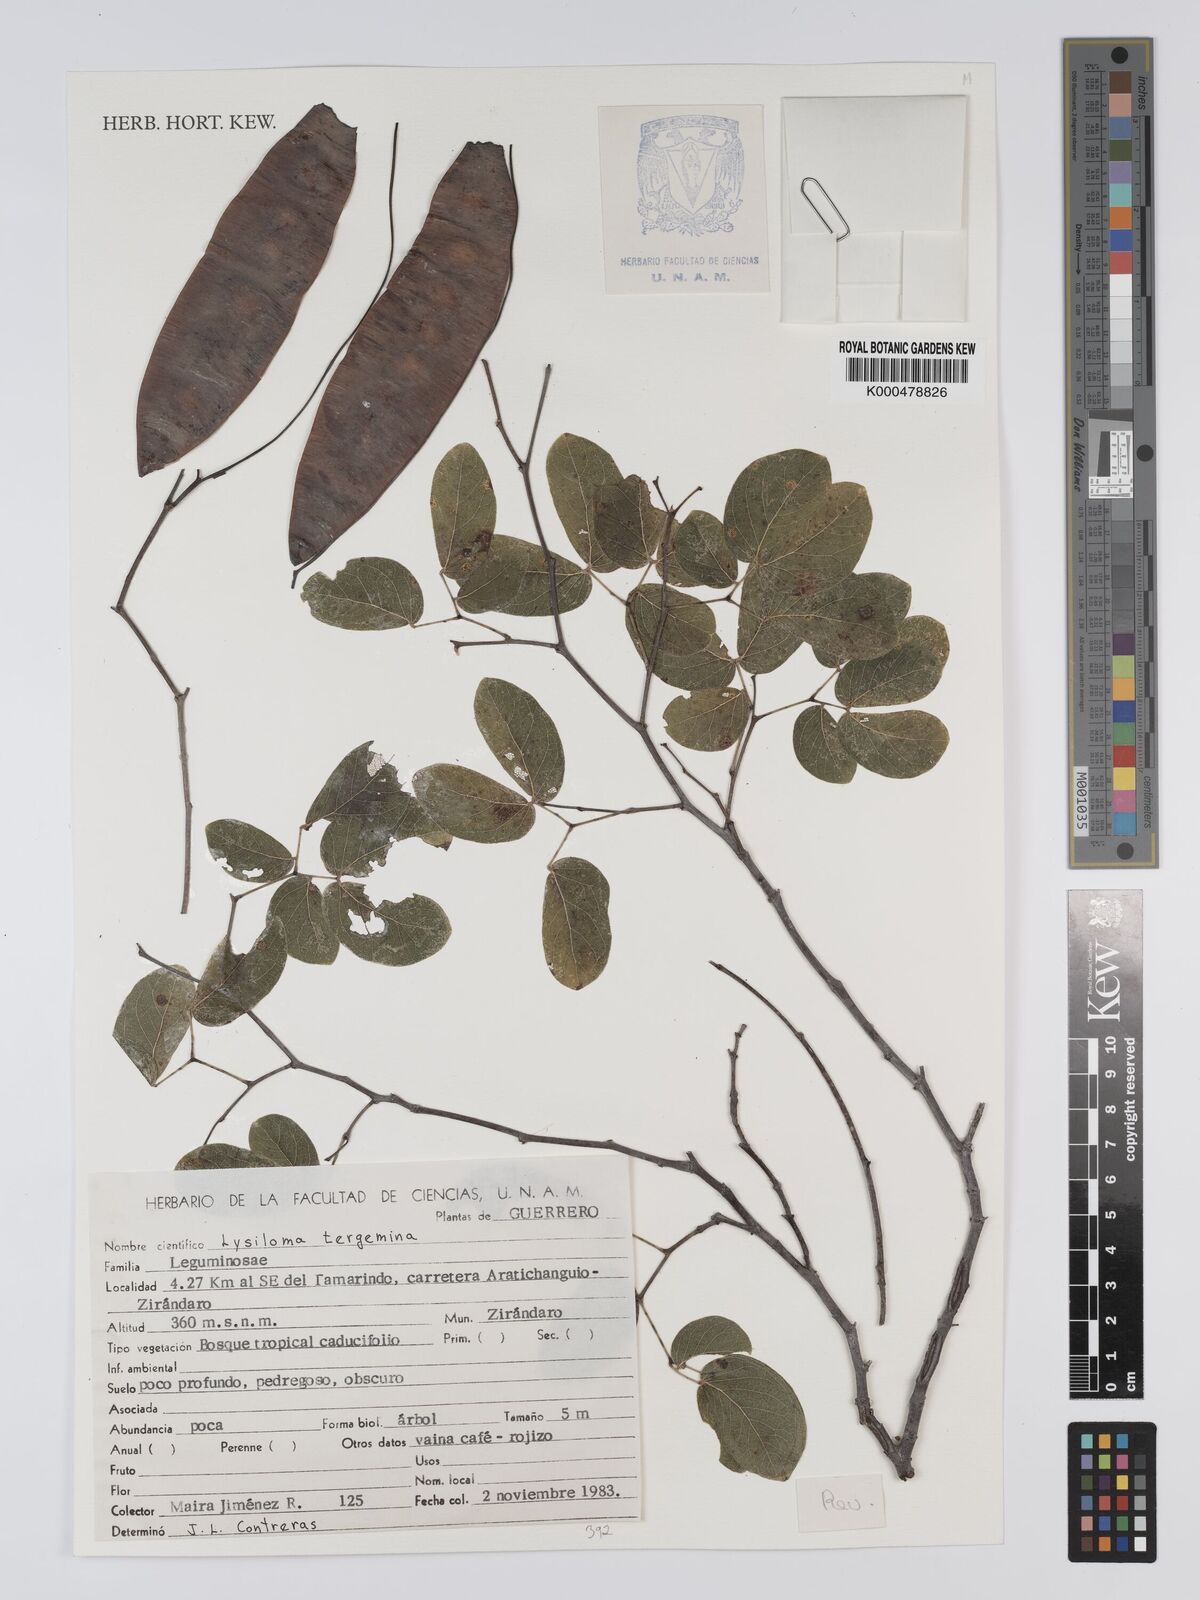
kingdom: Plantae
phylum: Tracheophyta
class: Magnoliopsida
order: Fabales
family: Fabaceae
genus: Lysiloma
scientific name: Lysiloma tergeminum
